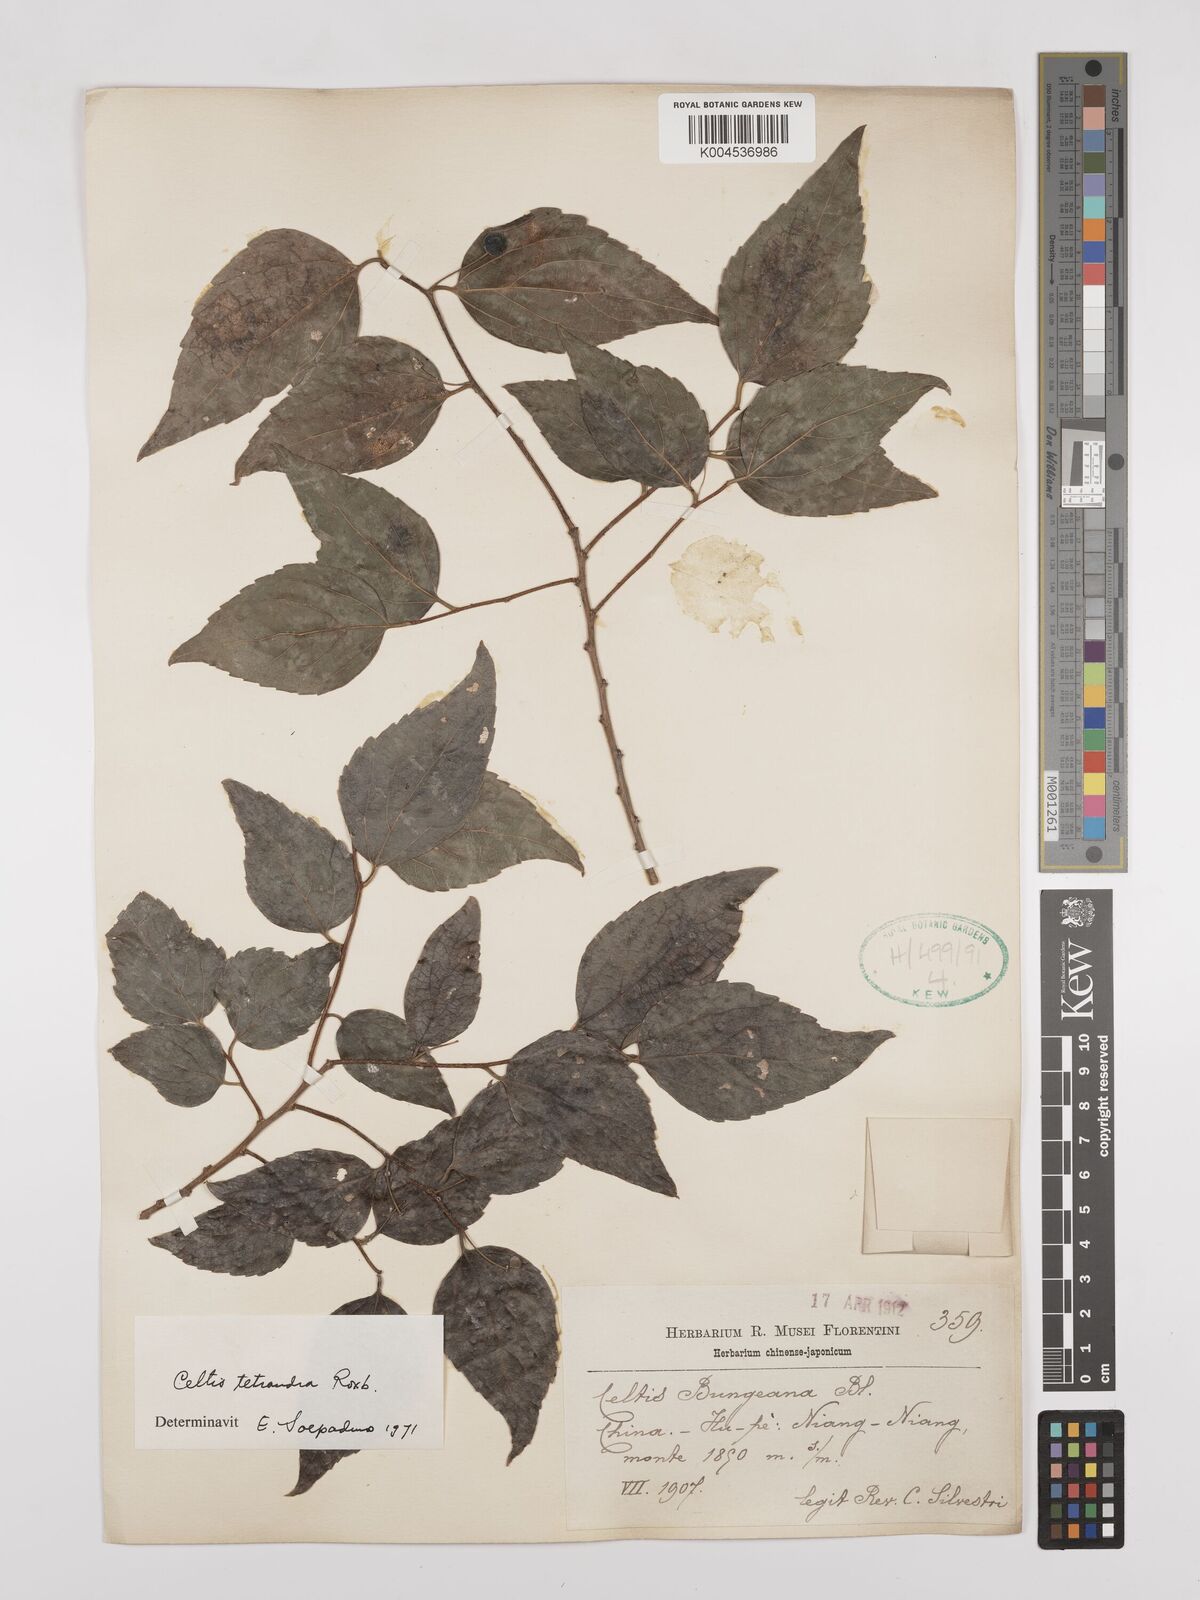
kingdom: Plantae
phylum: Tracheophyta
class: Magnoliopsida
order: Rosales
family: Cannabaceae
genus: Celtis
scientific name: Celtis tetrandra
